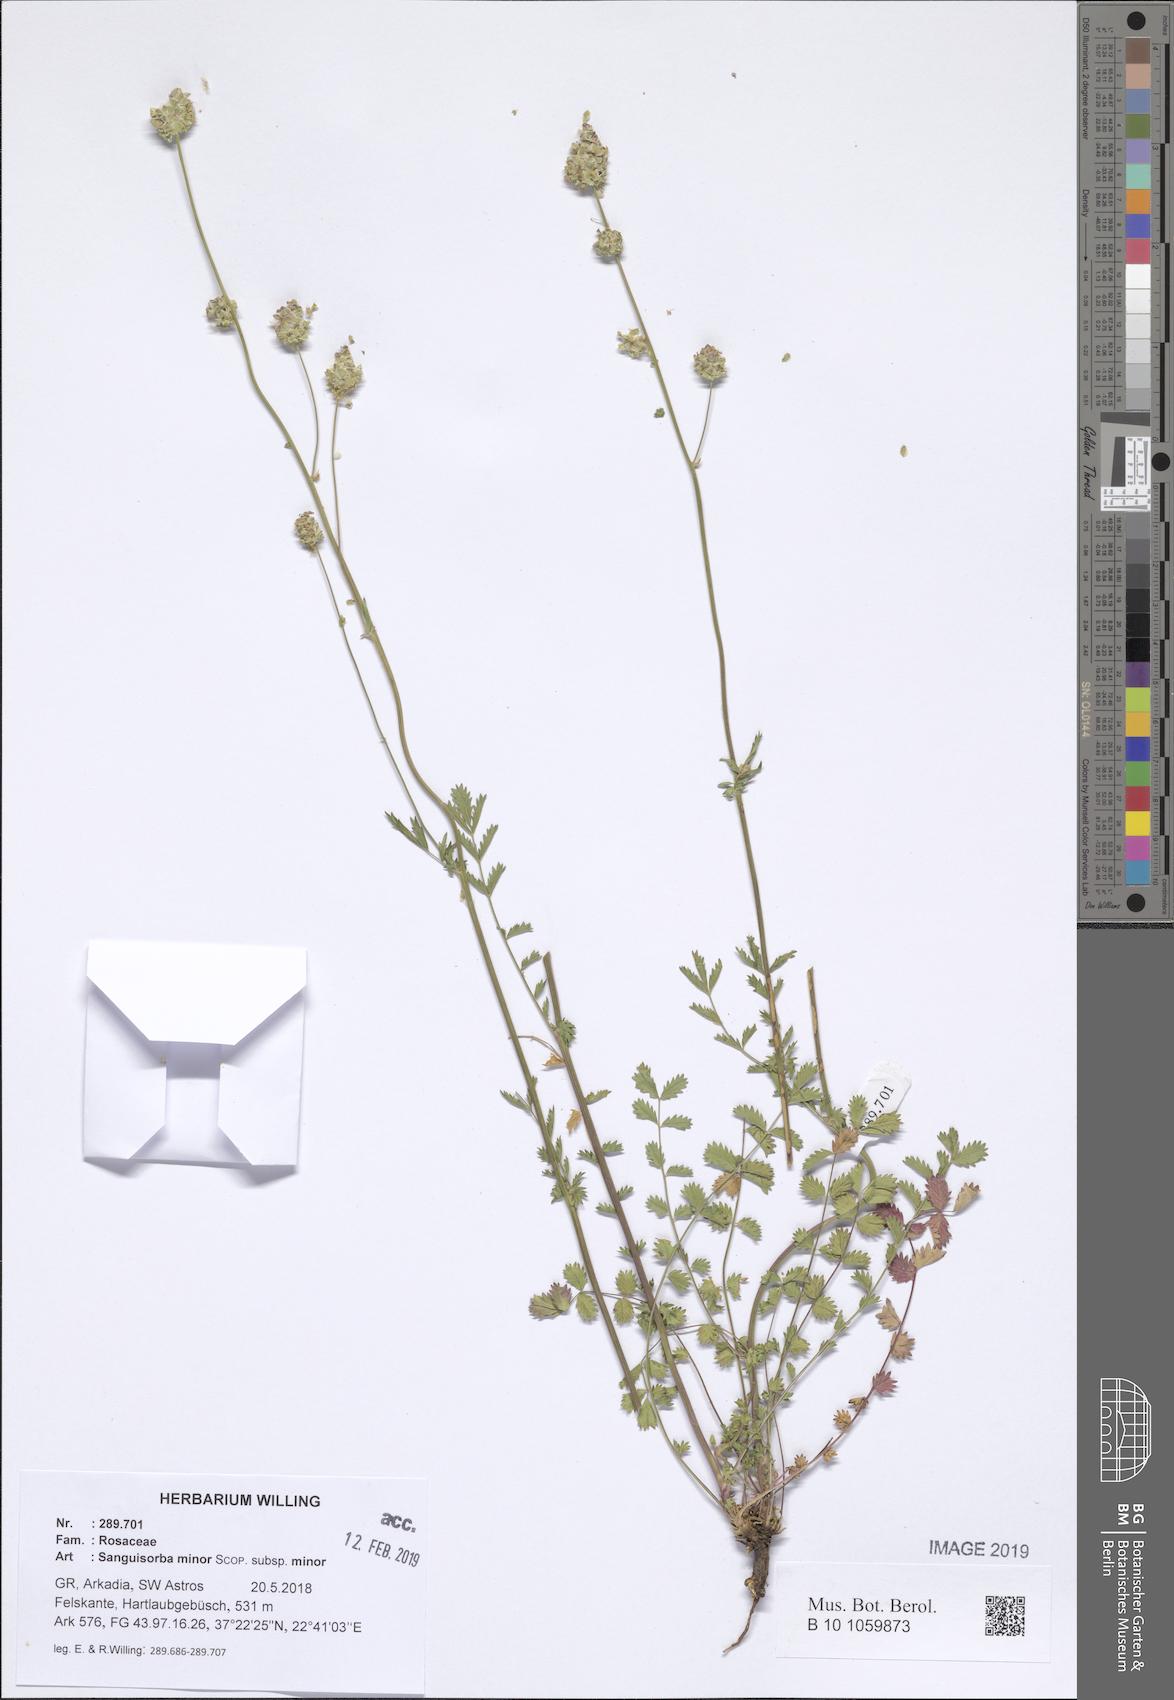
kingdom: Plantae
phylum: Tracheophyta
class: Magnoliopsida
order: Rosales
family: Rosaceae
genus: Poterium
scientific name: Poterium sanguisorba
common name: Salad burnet
